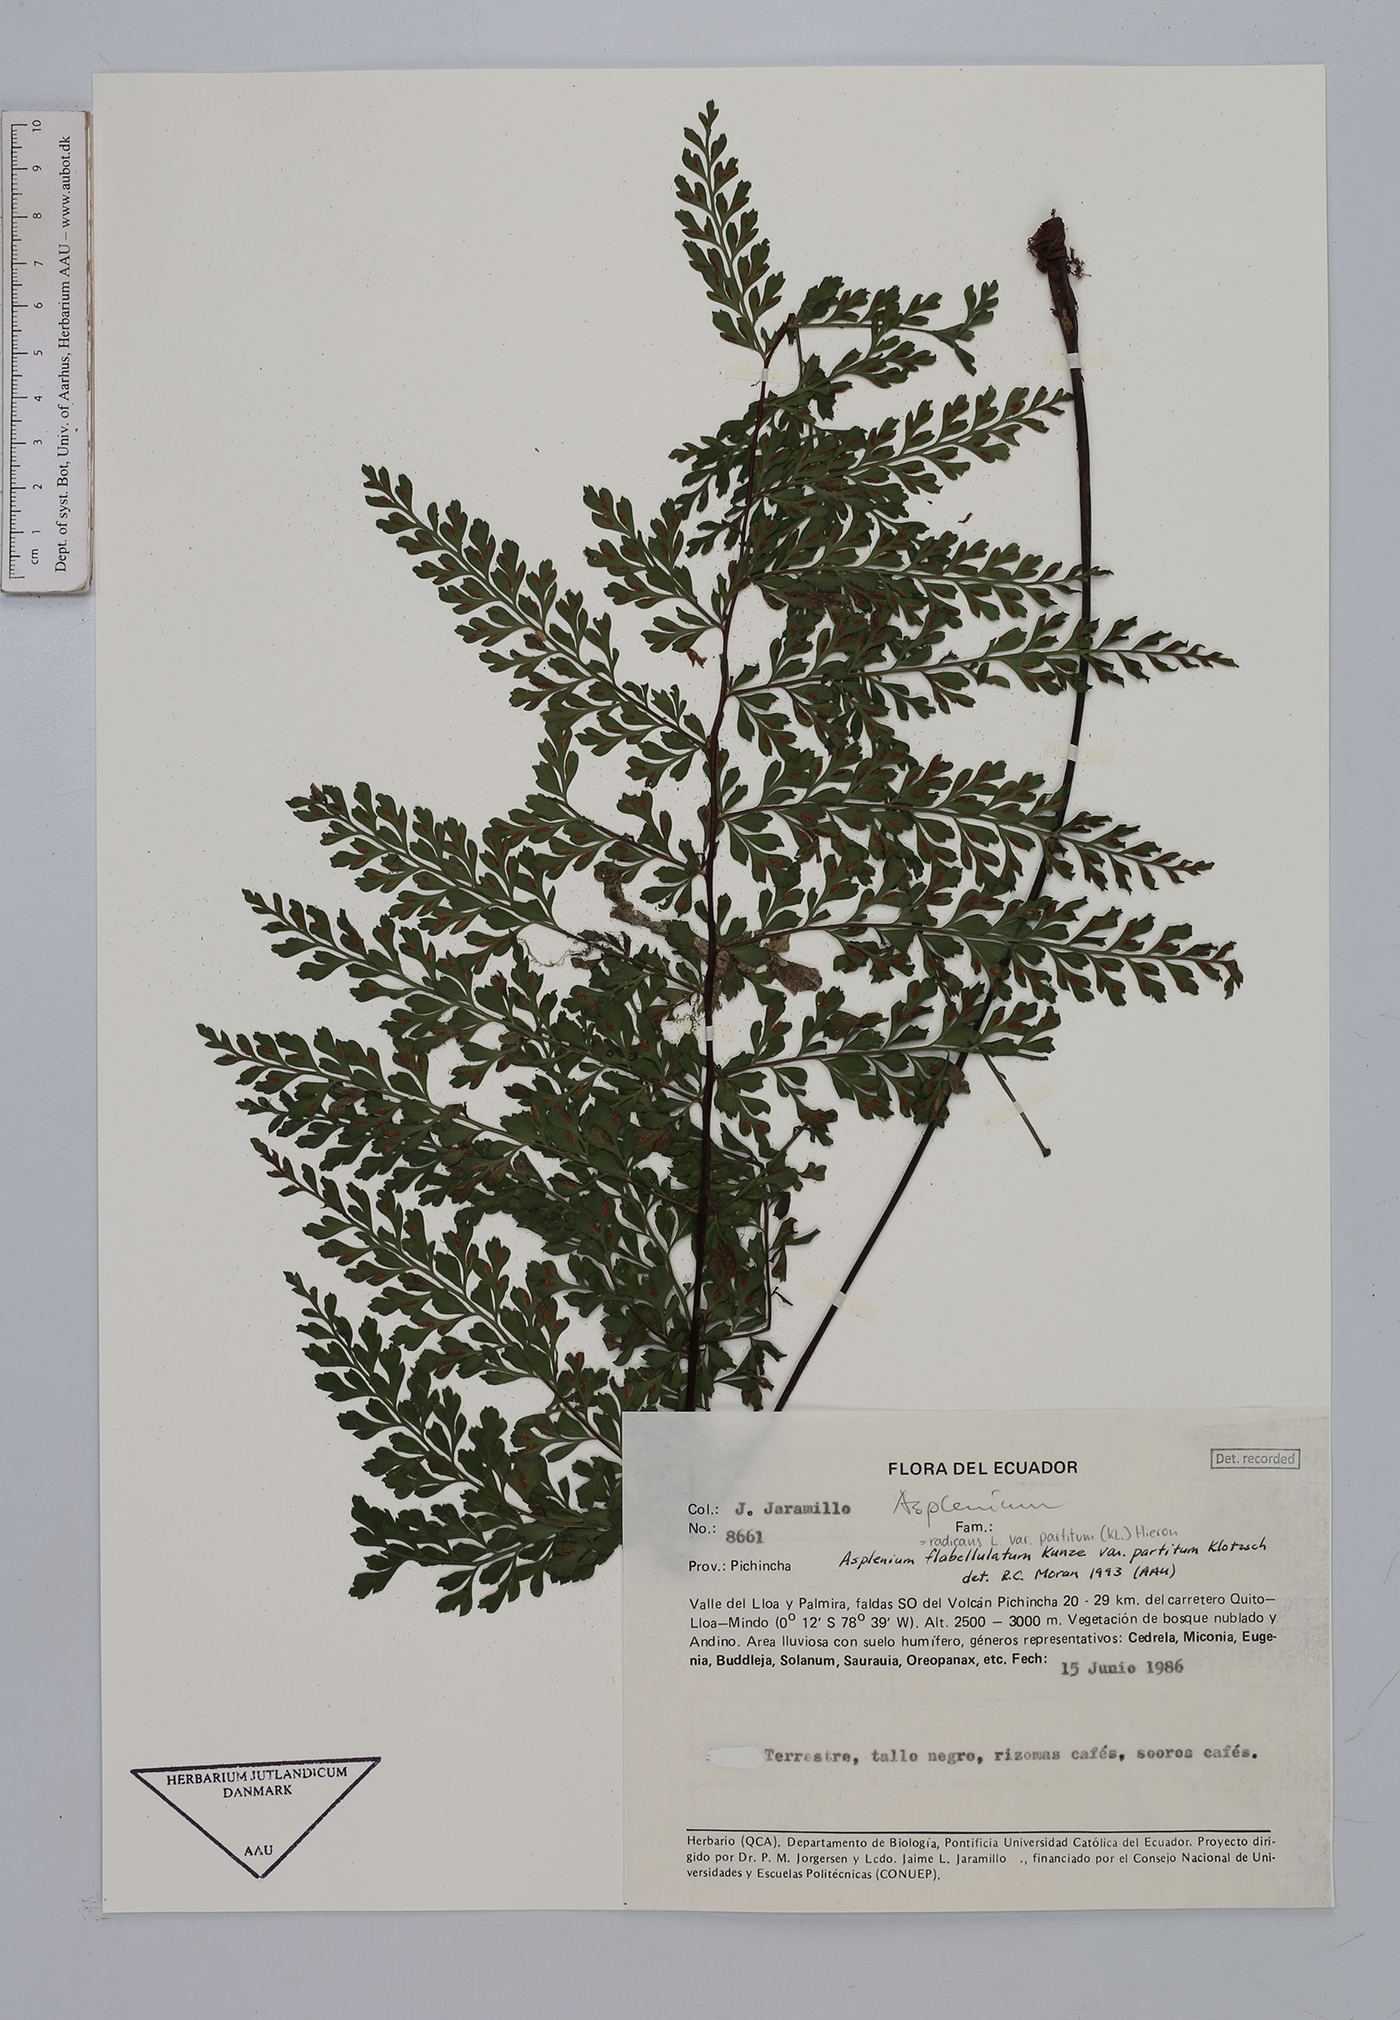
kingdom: Plantae
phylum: Tracheophyta
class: Polypodiopsida
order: Polypodiales
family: Aspleniaceae
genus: Asplenium
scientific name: Asplenium flabellulatum
